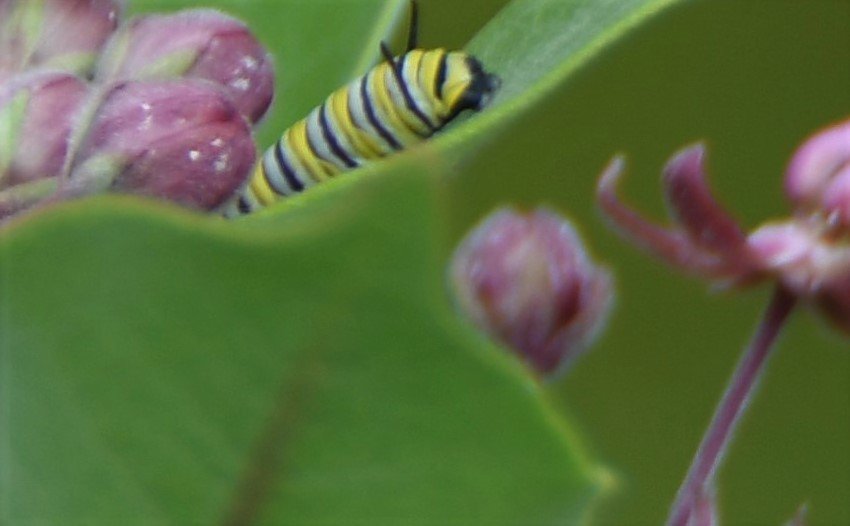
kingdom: Animalia
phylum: Arthropoda
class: Insecta
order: Lepidoptera
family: Nymphalidae
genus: Danaus
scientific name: Danaus plexippus
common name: Monarch
